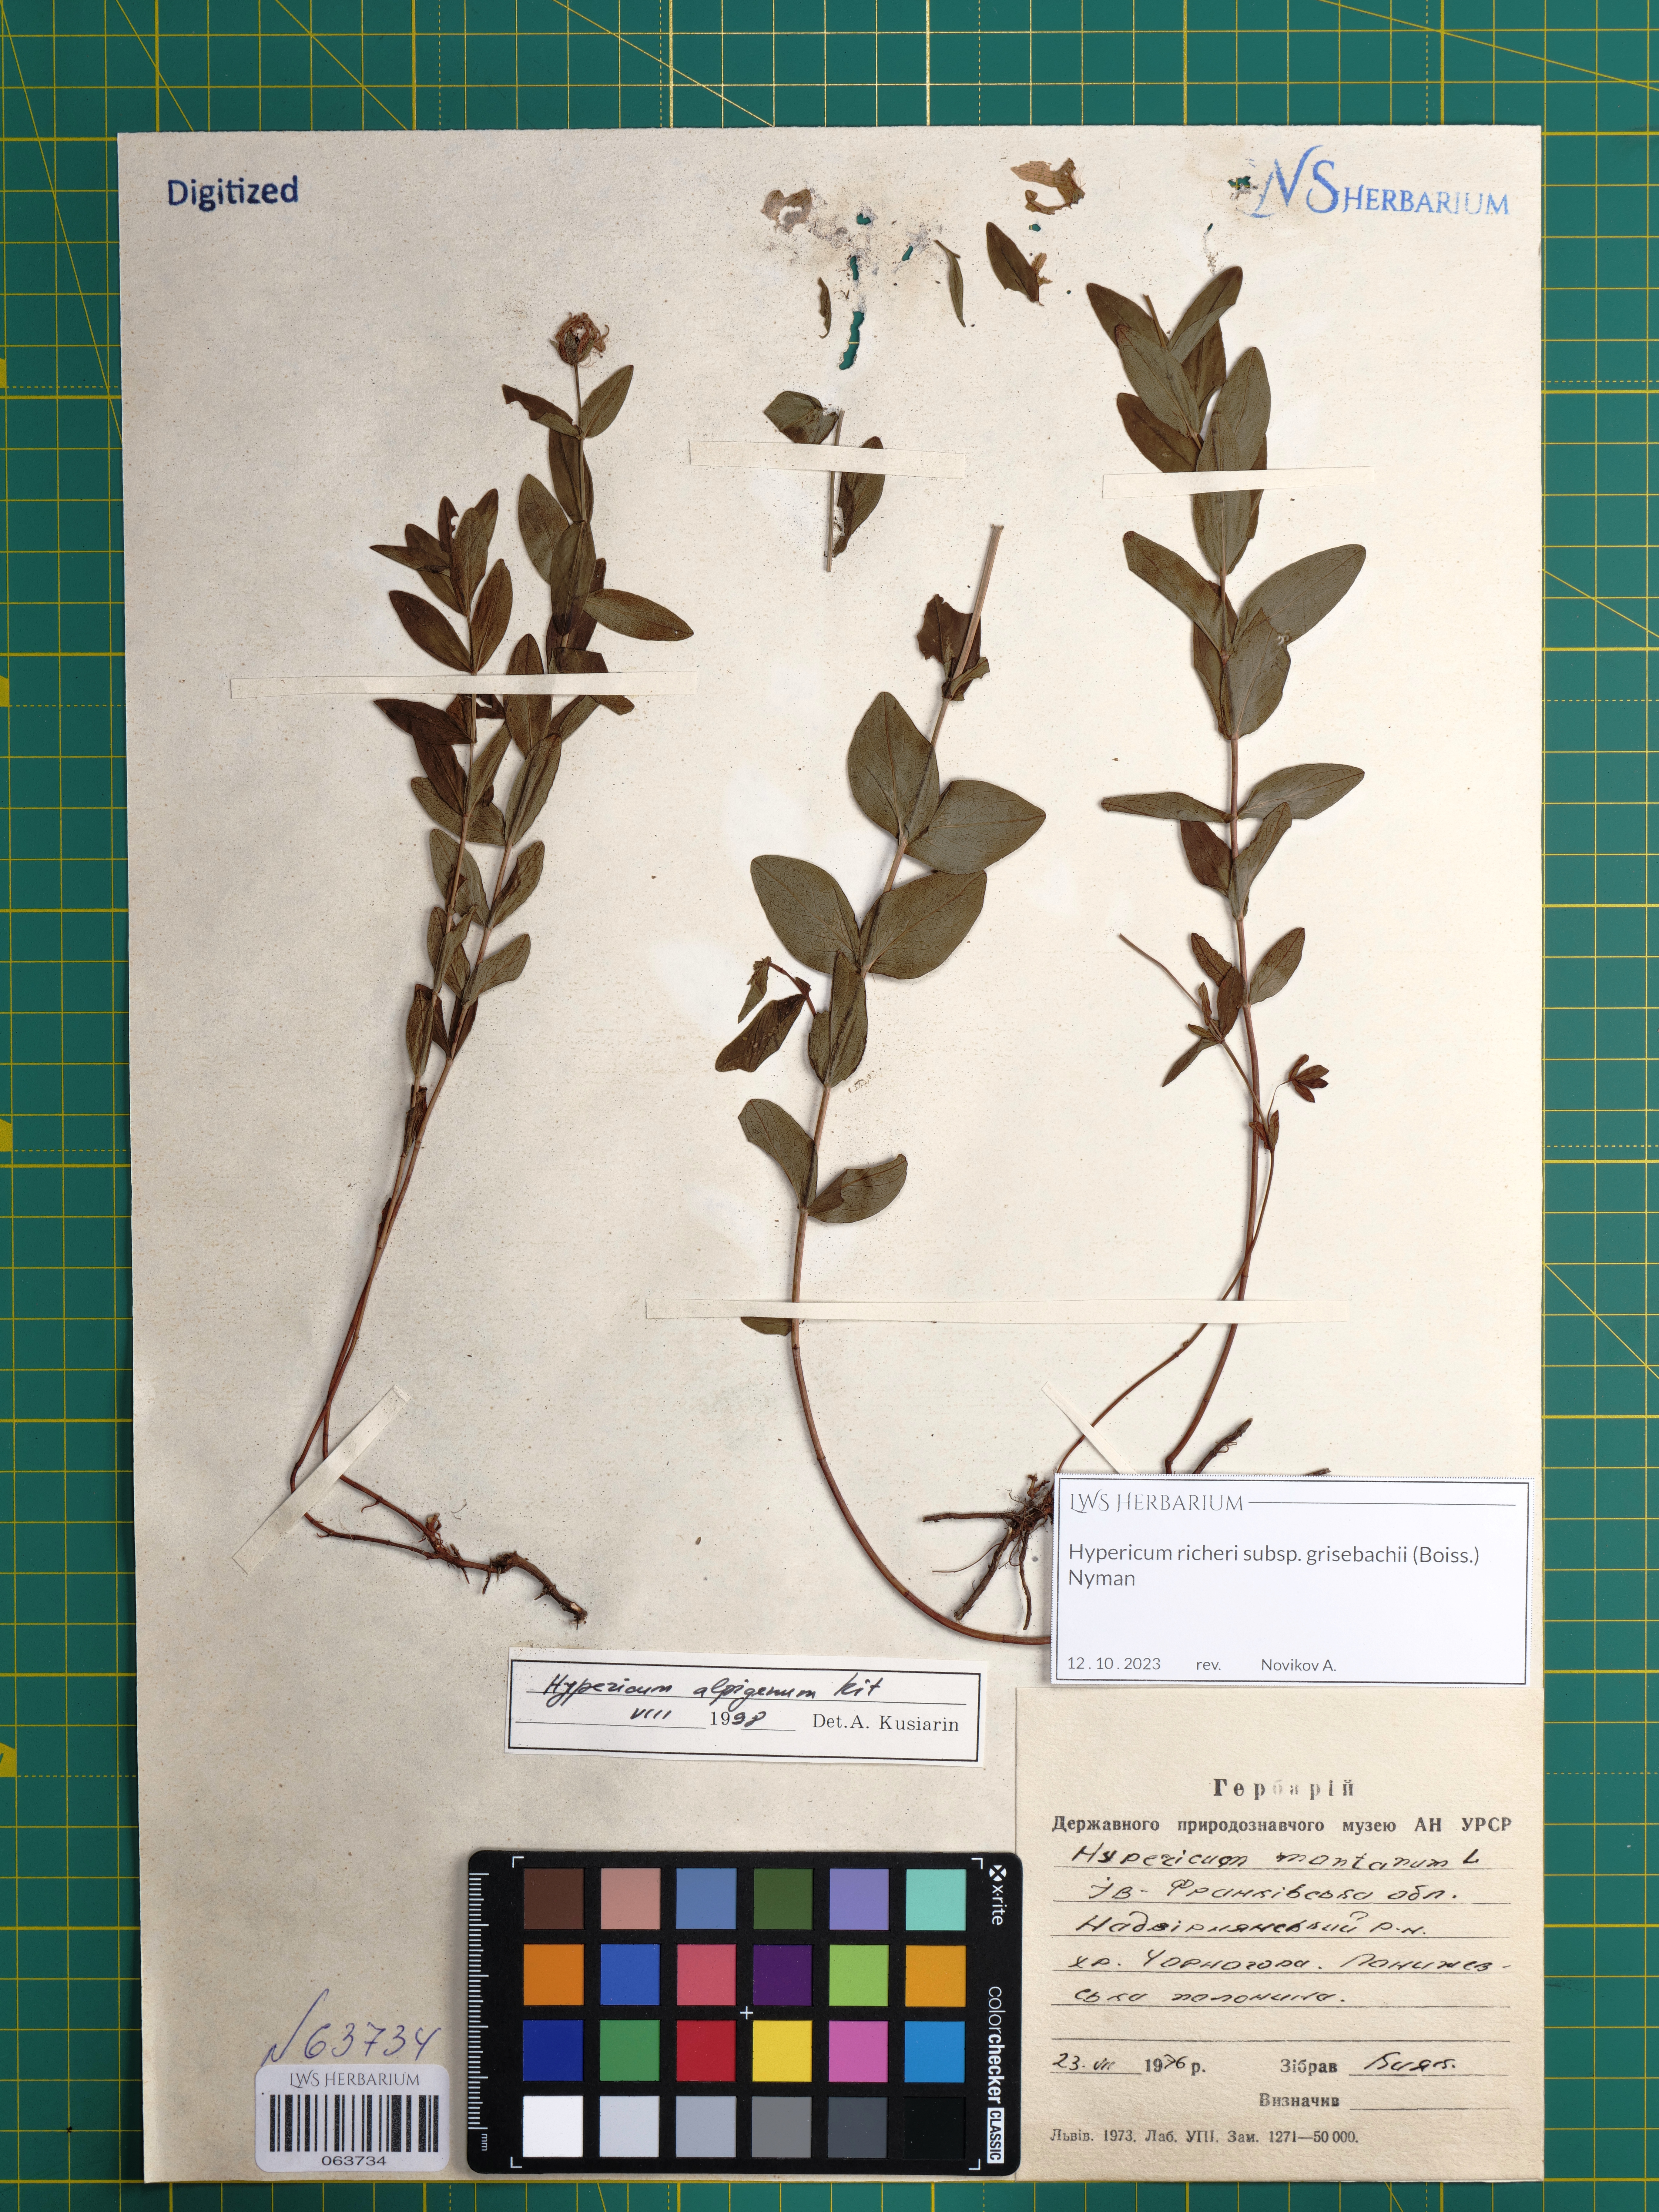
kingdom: Plantae
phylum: Tracheophyta
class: Magnoliopsida
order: Malpighiales
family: Hypericaceae
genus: Hypericum
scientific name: Hypericum richeri
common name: Alpine st john's-wort
